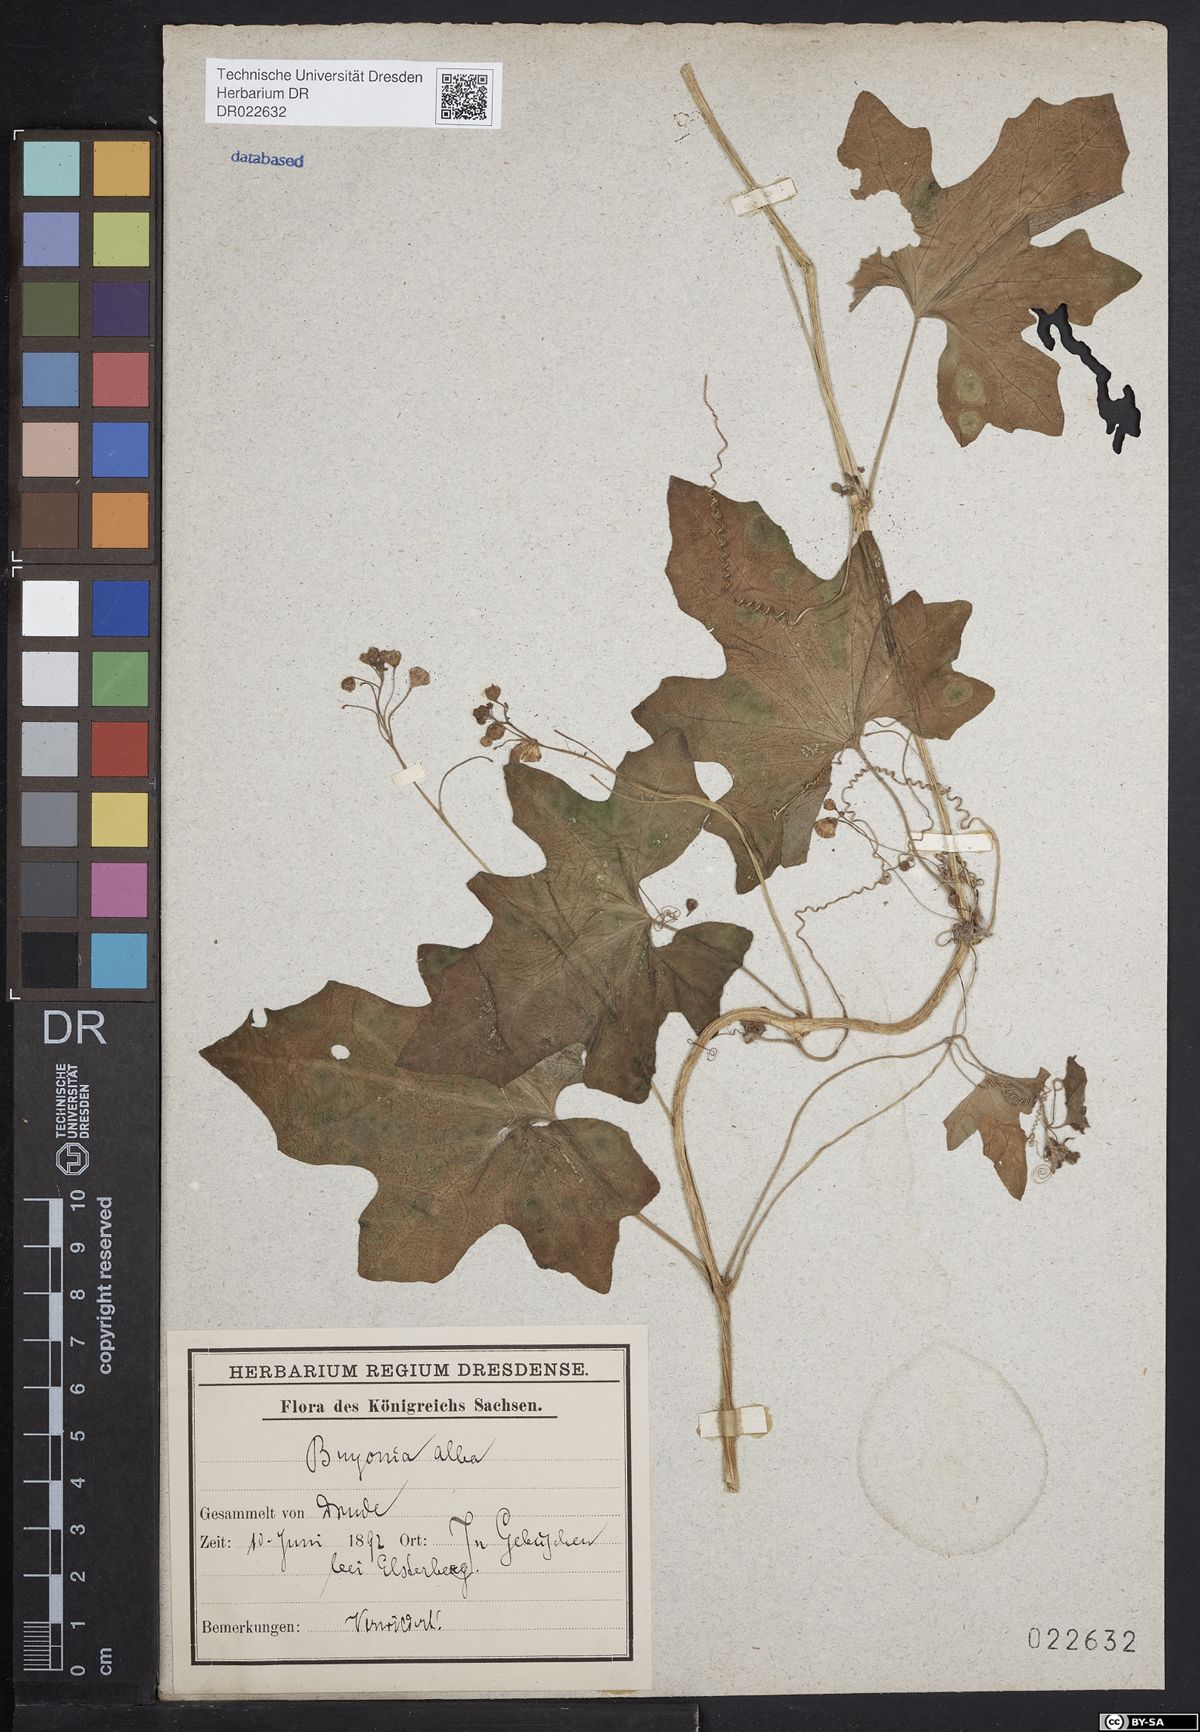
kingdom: Plantae
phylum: Tracheophyta
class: Magnoliopsida
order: Cucurbitales
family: Cucurbitaceae
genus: Bryonia
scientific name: Bryonia alba
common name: White bryony
